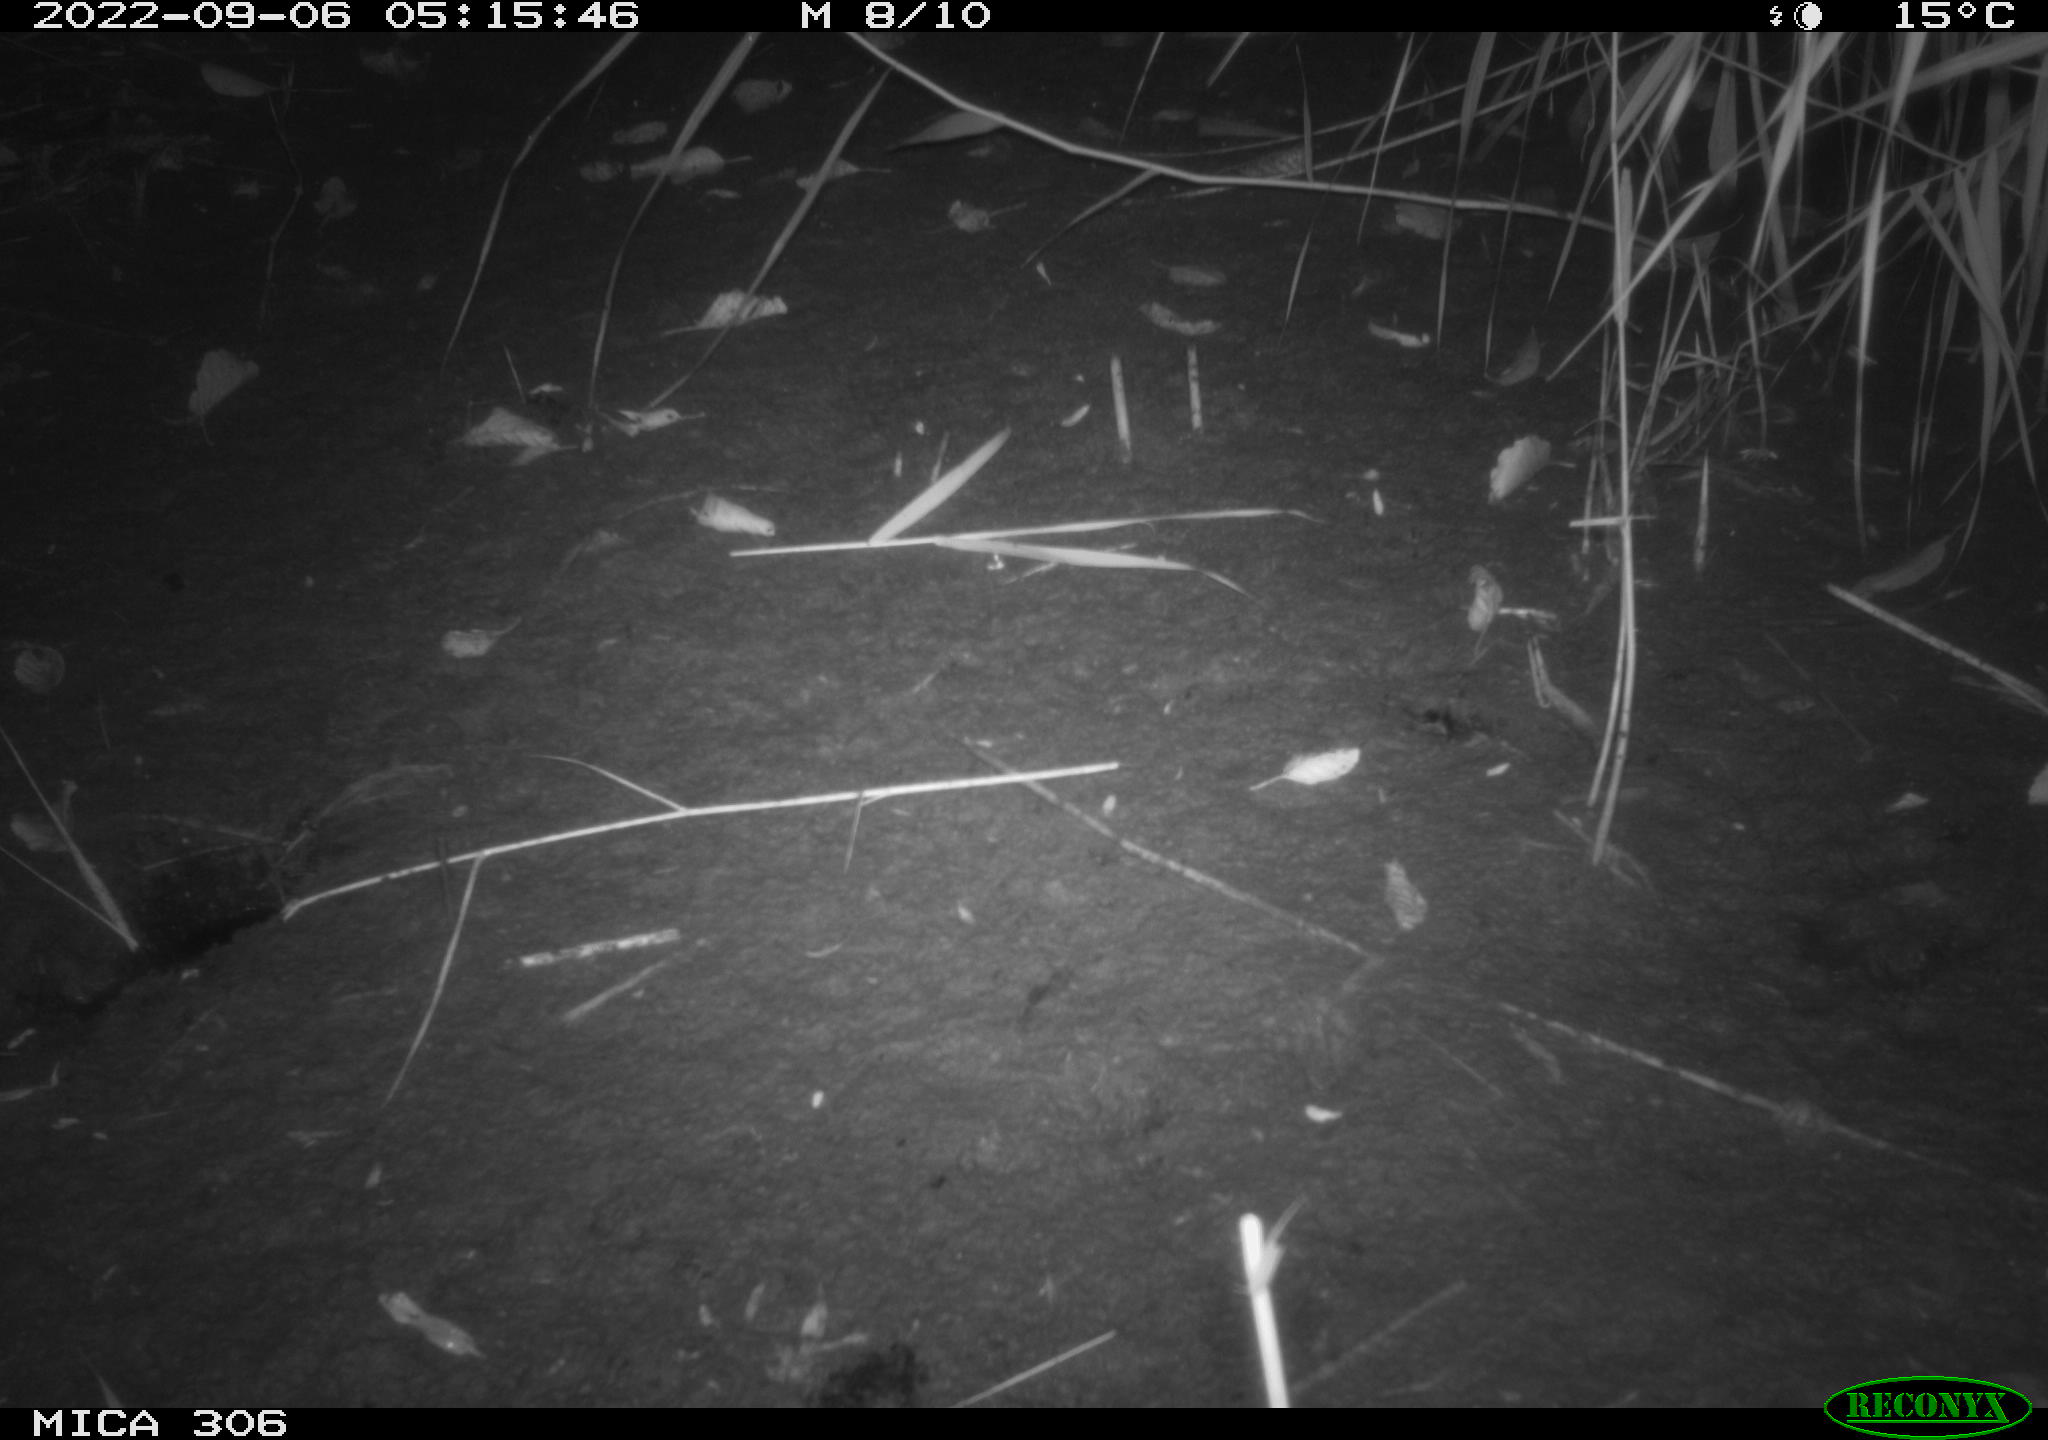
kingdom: Animalia
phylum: Chordata
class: Mammalia
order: Rodentia
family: Muridae
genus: Rattus
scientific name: Rattus norvegicus
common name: Brown rat
